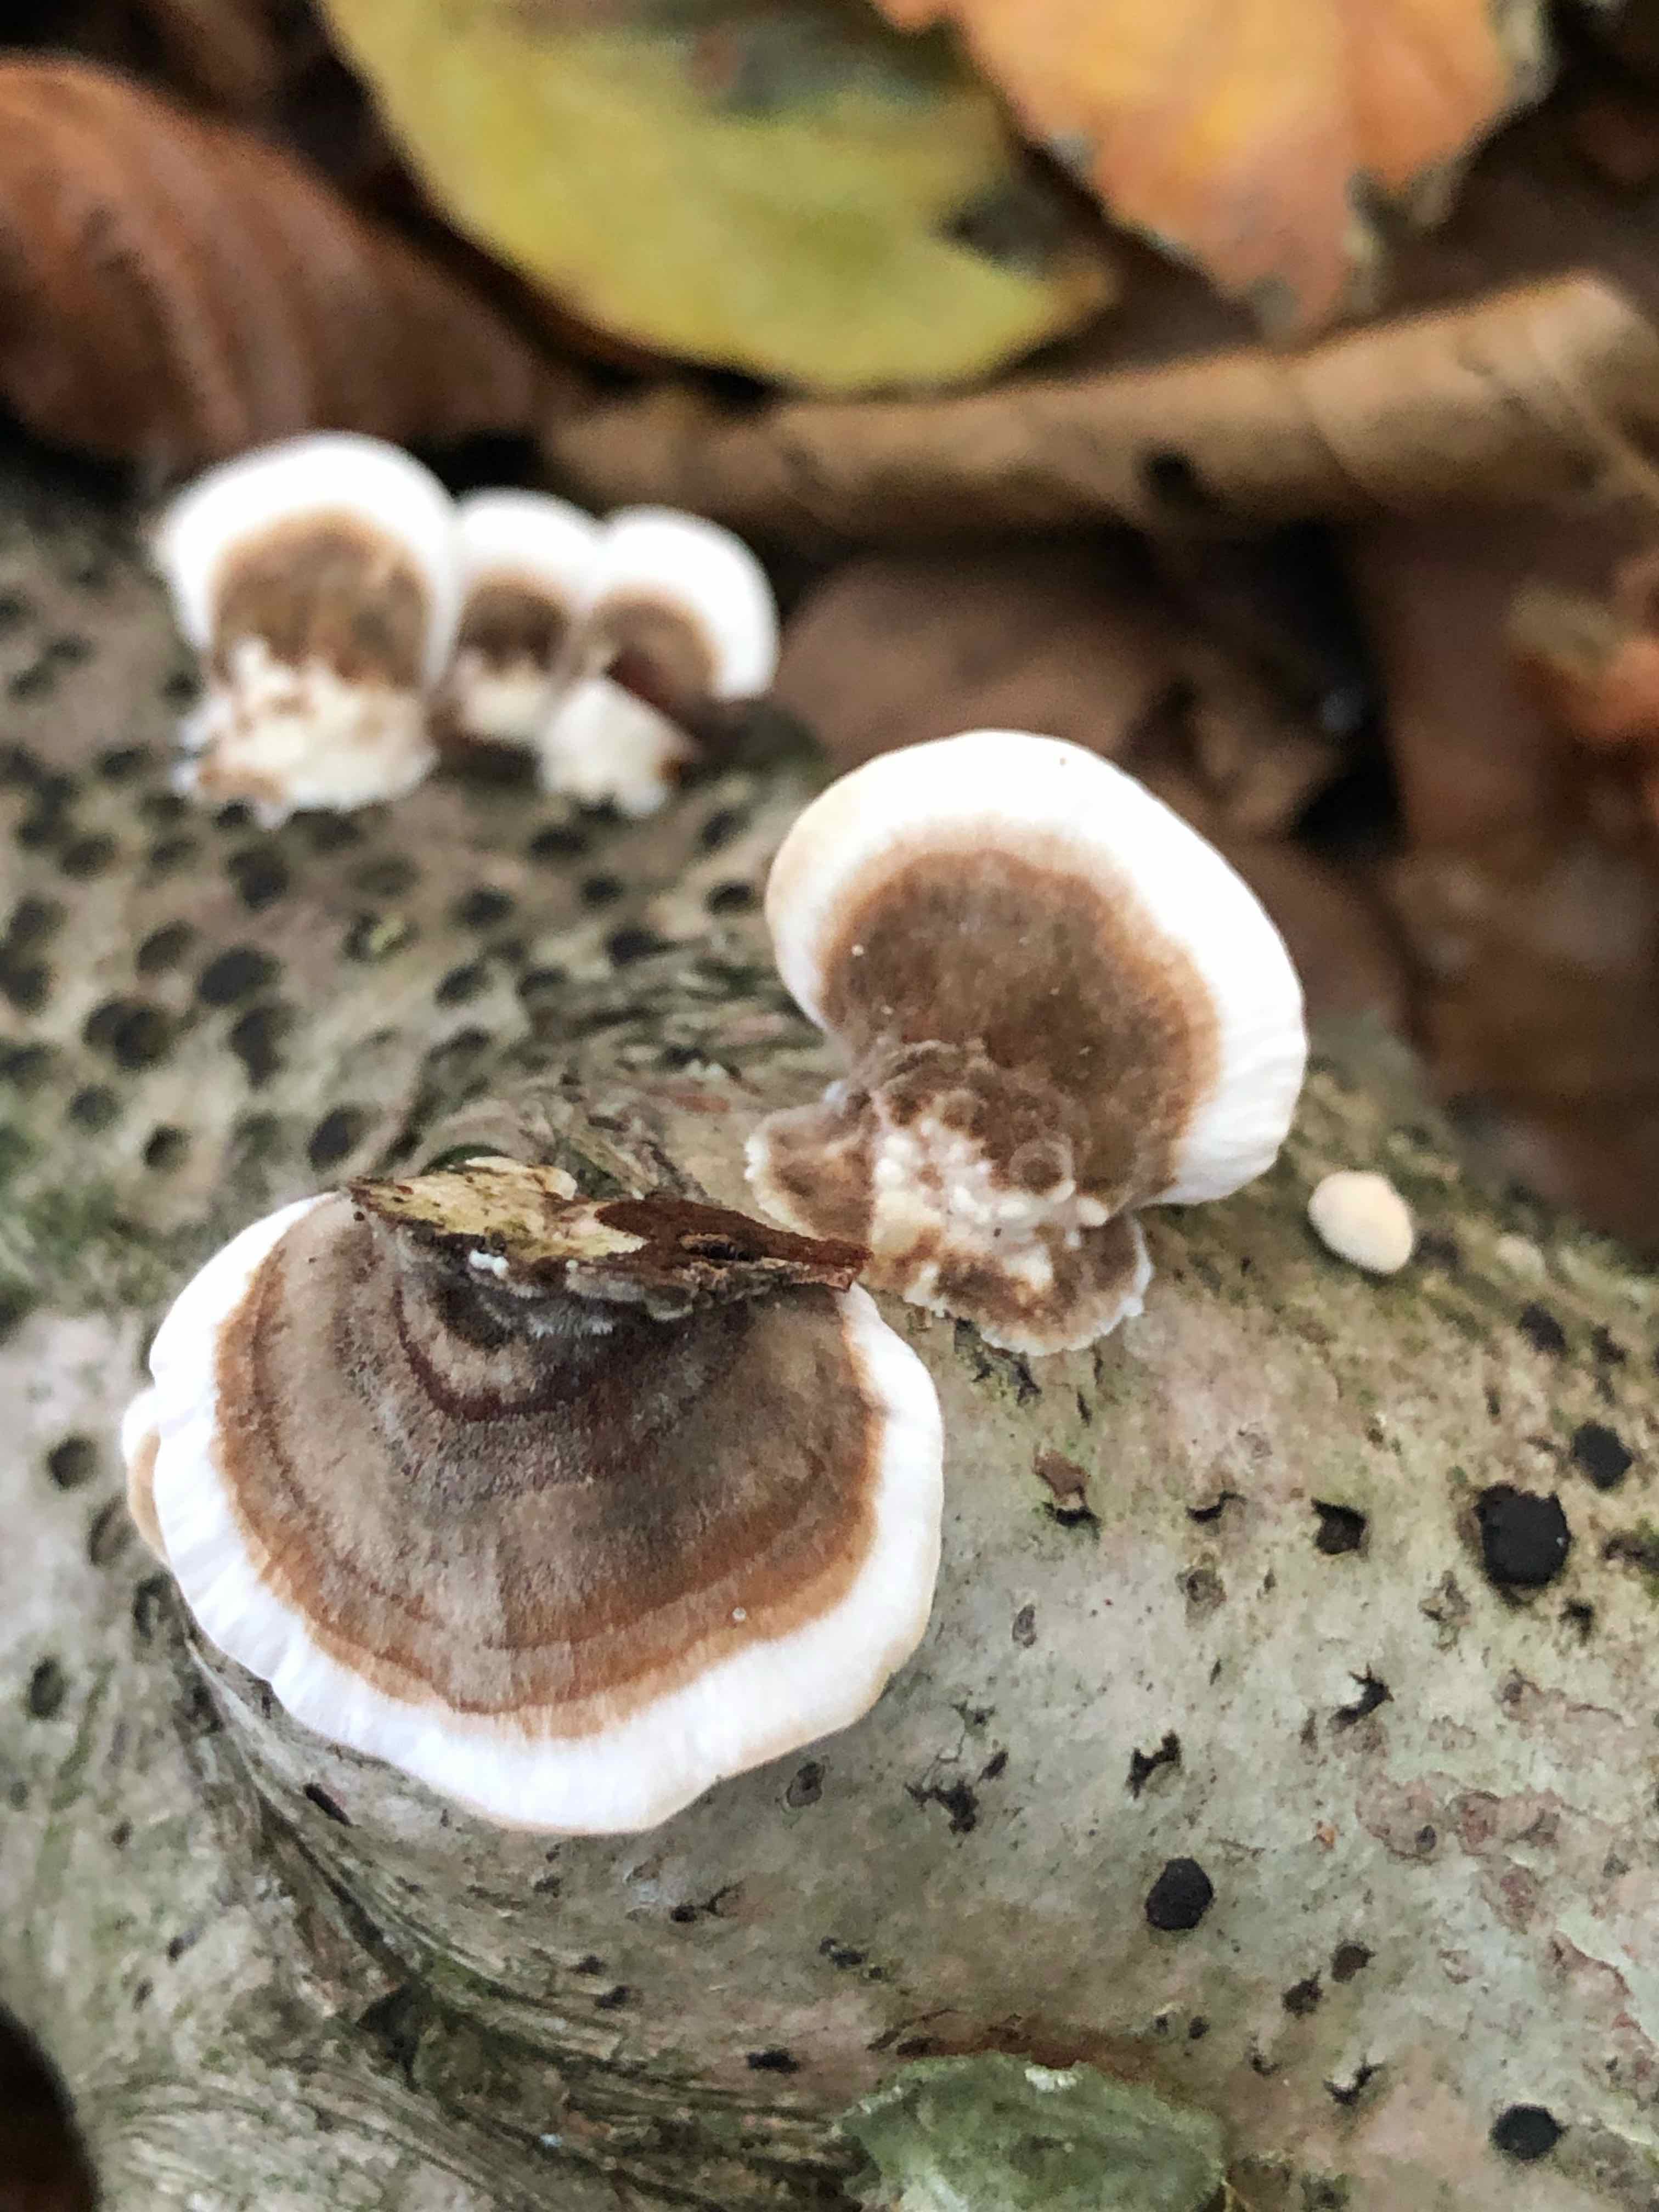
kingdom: Fungi
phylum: Basidiomycota
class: Agaricomycetes
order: Polyporales
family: Polyporaceae
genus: Trametes
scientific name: Trametes versicolor
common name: broget læderporesvamp
